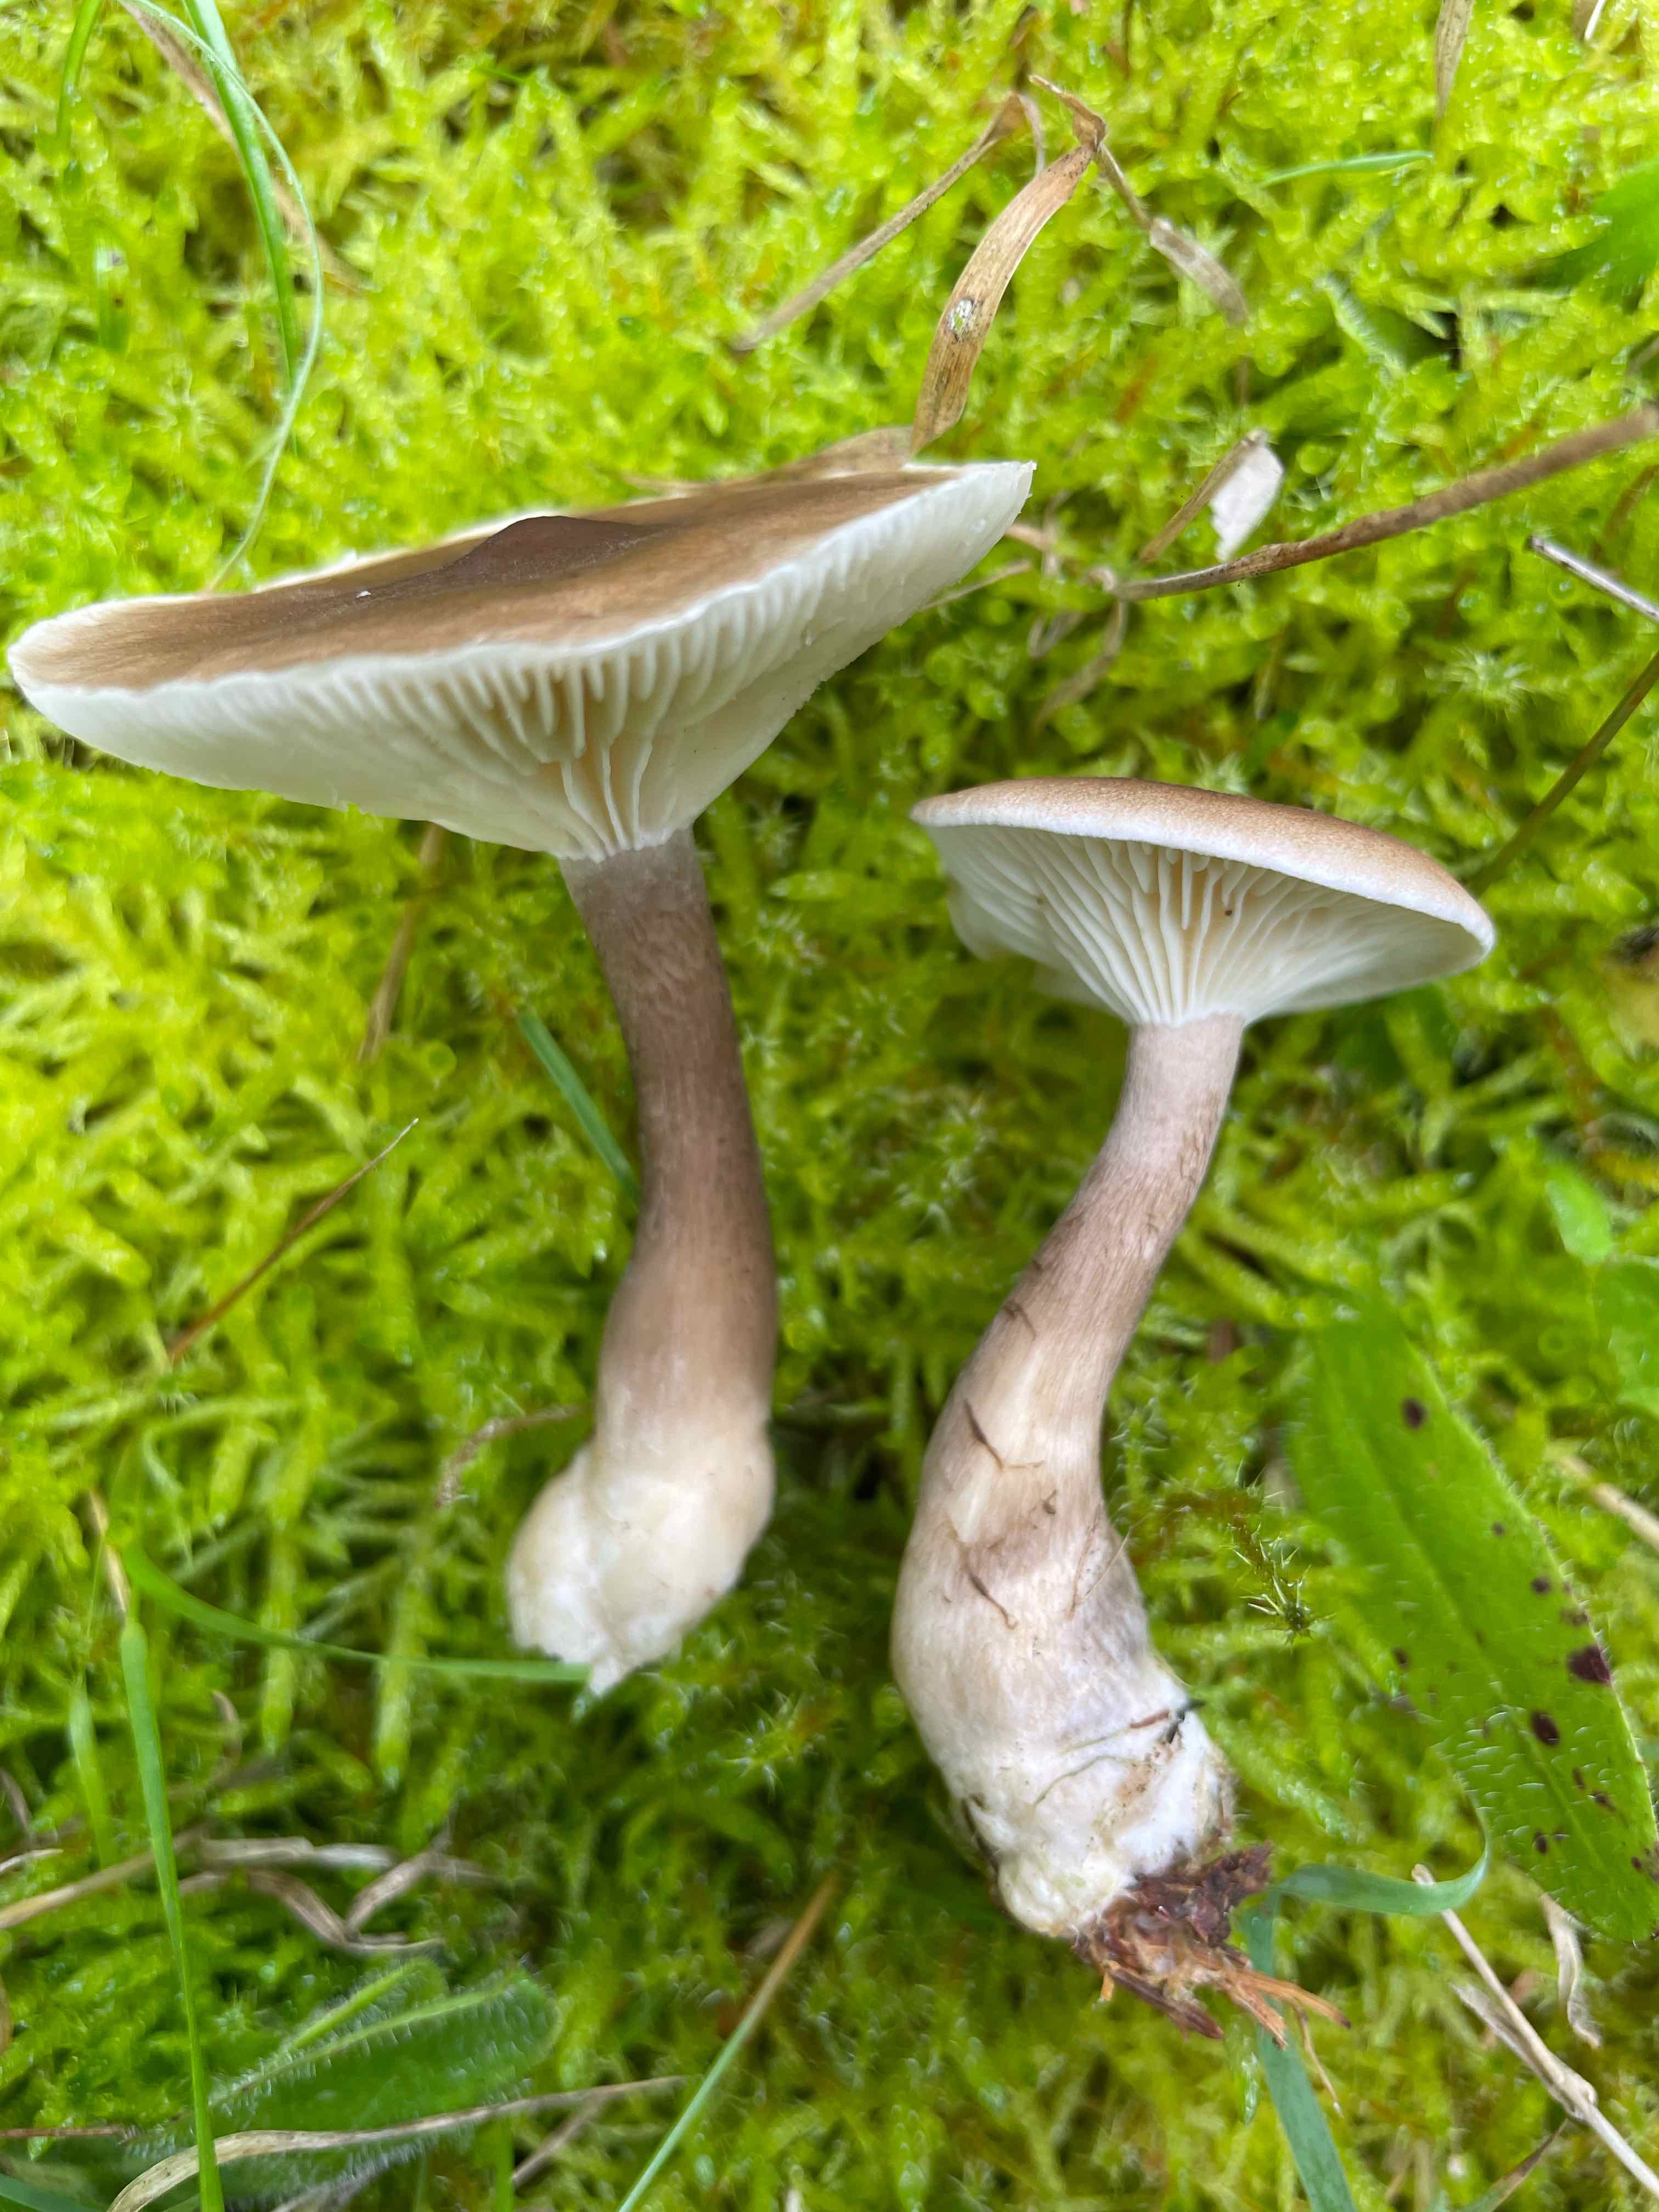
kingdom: Fungi
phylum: Basidiomycota
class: Agaricomycetes
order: Agaricales
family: Hygrophoraceae
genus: Ampulloclitocybe
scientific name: Ampulloclitocybe clavipes
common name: køllefod
